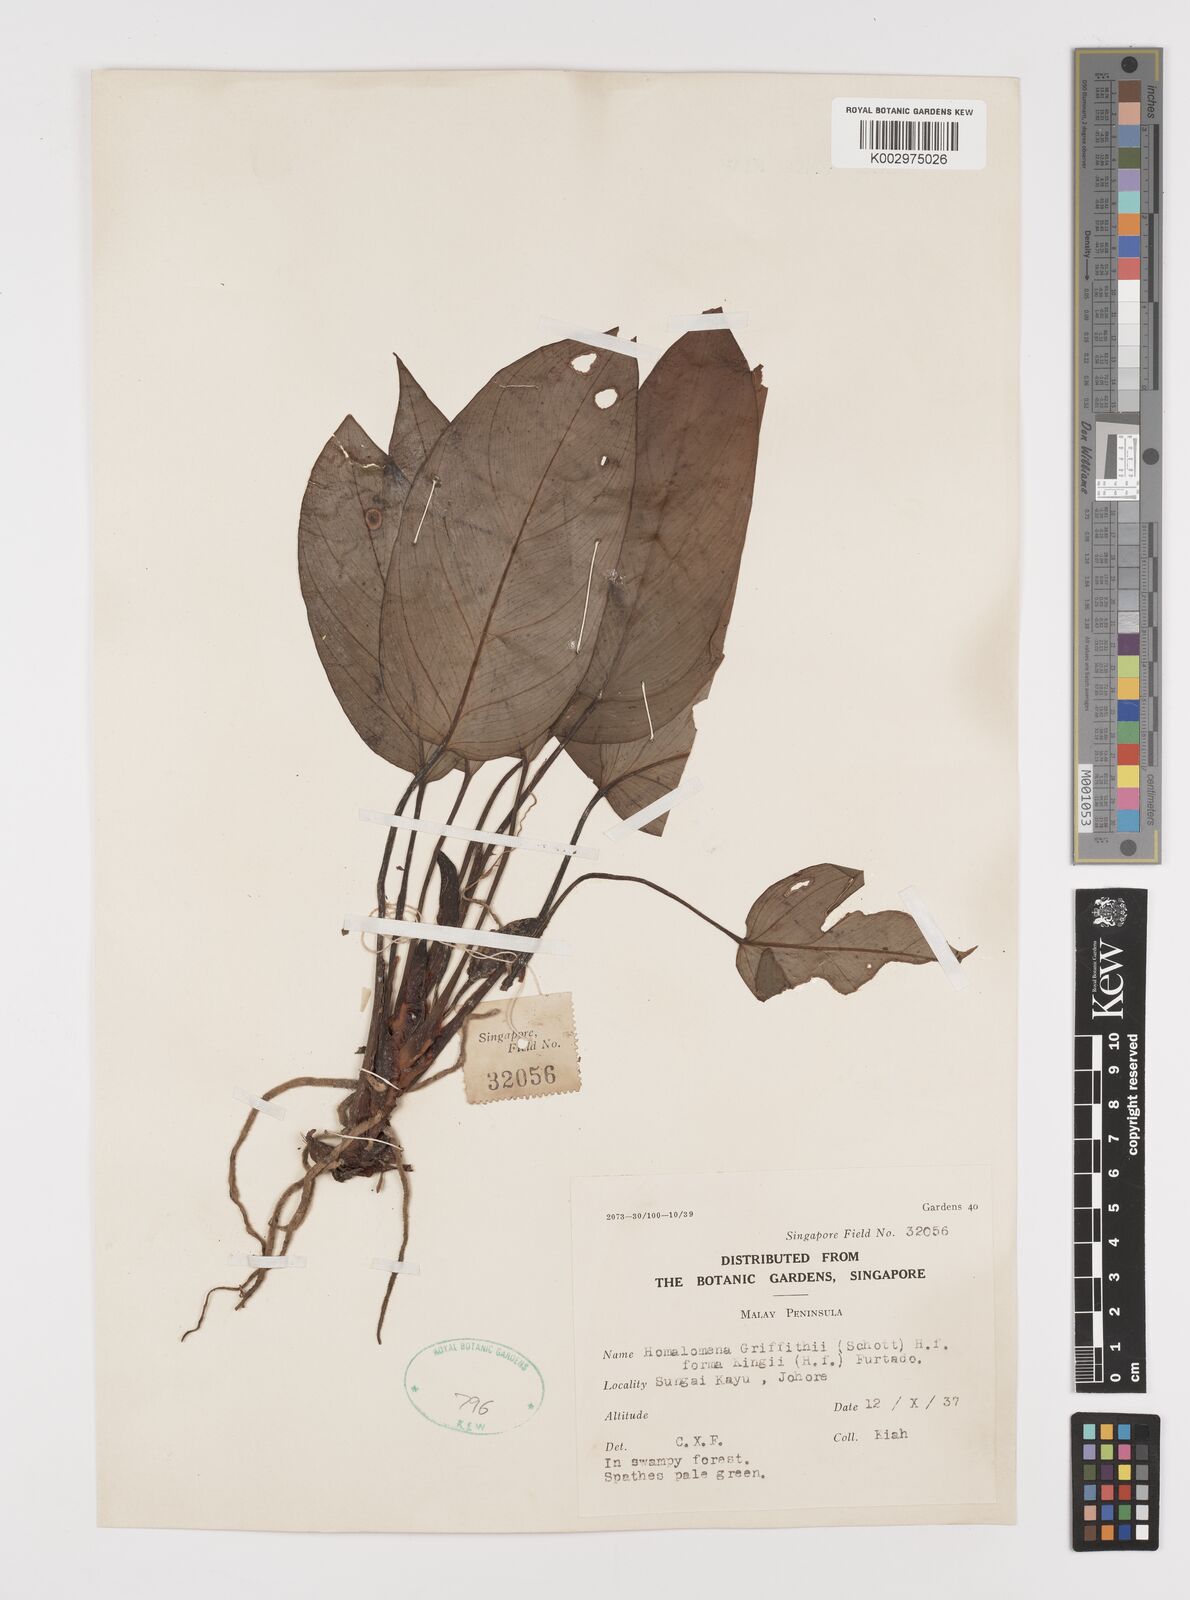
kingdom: Plantae
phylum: Tracheophyta
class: Liliopsida
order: Alismatales
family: Araceae
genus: Homalomena
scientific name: Homalomena griffithii
